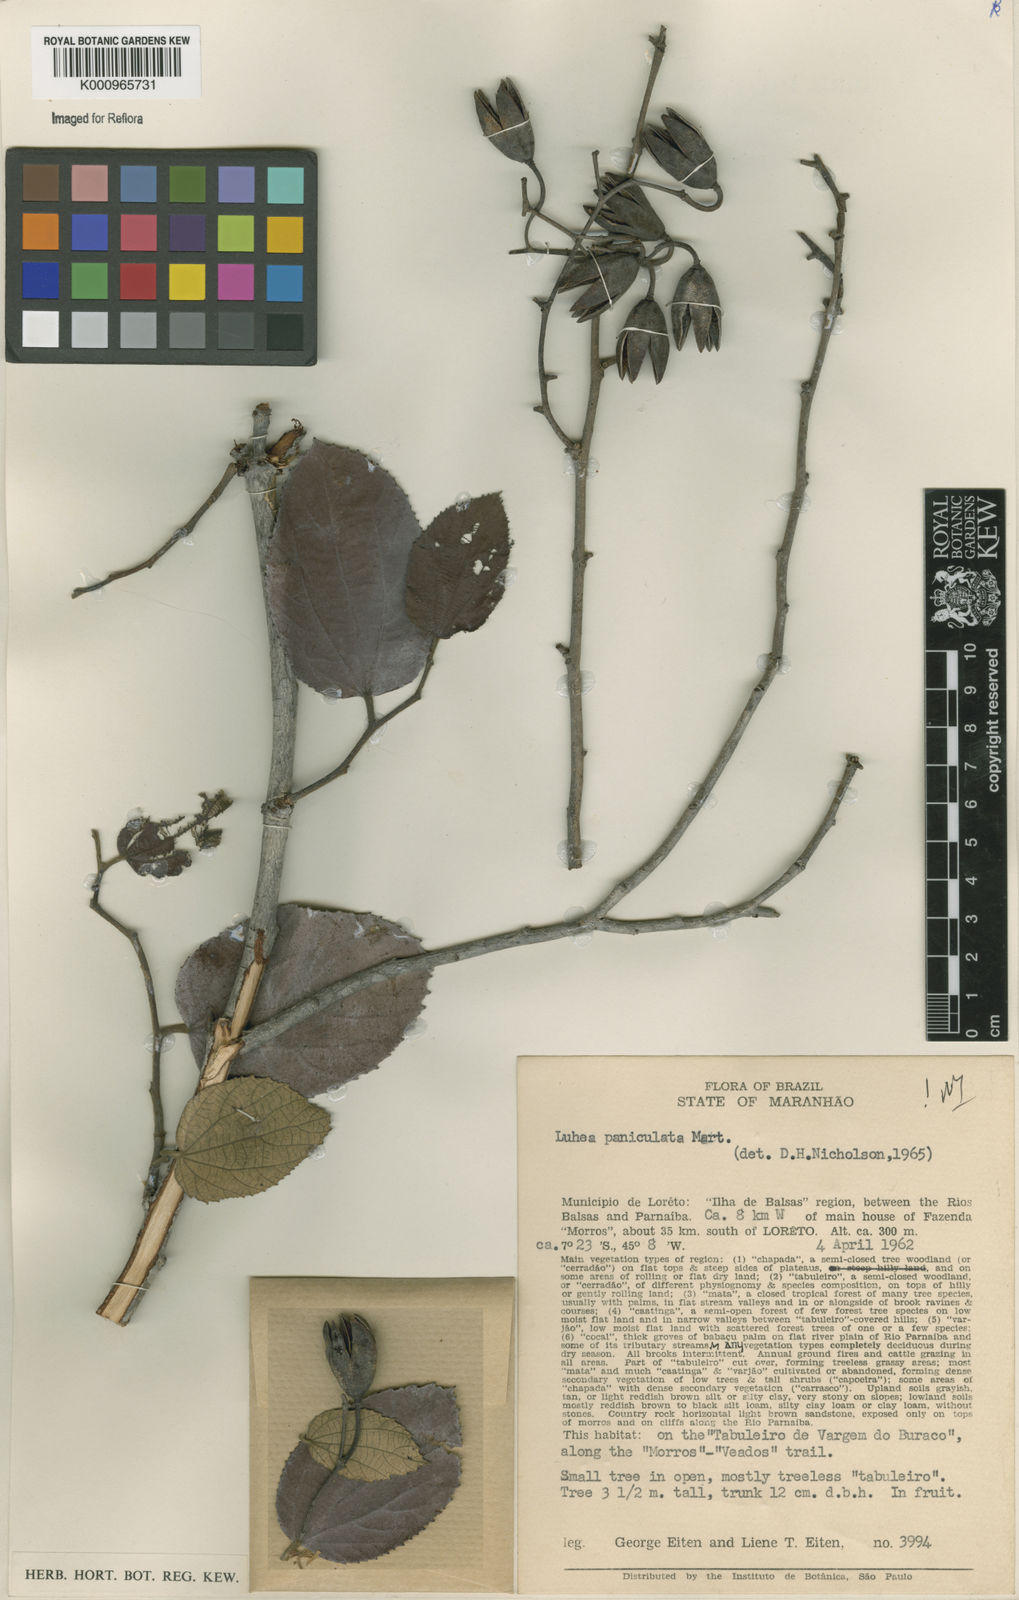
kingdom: Plantae
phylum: Tracheophyta
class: Magnoliopsida
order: Malvales
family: Malvaceae
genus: Luehea
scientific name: Luehea paniculata
